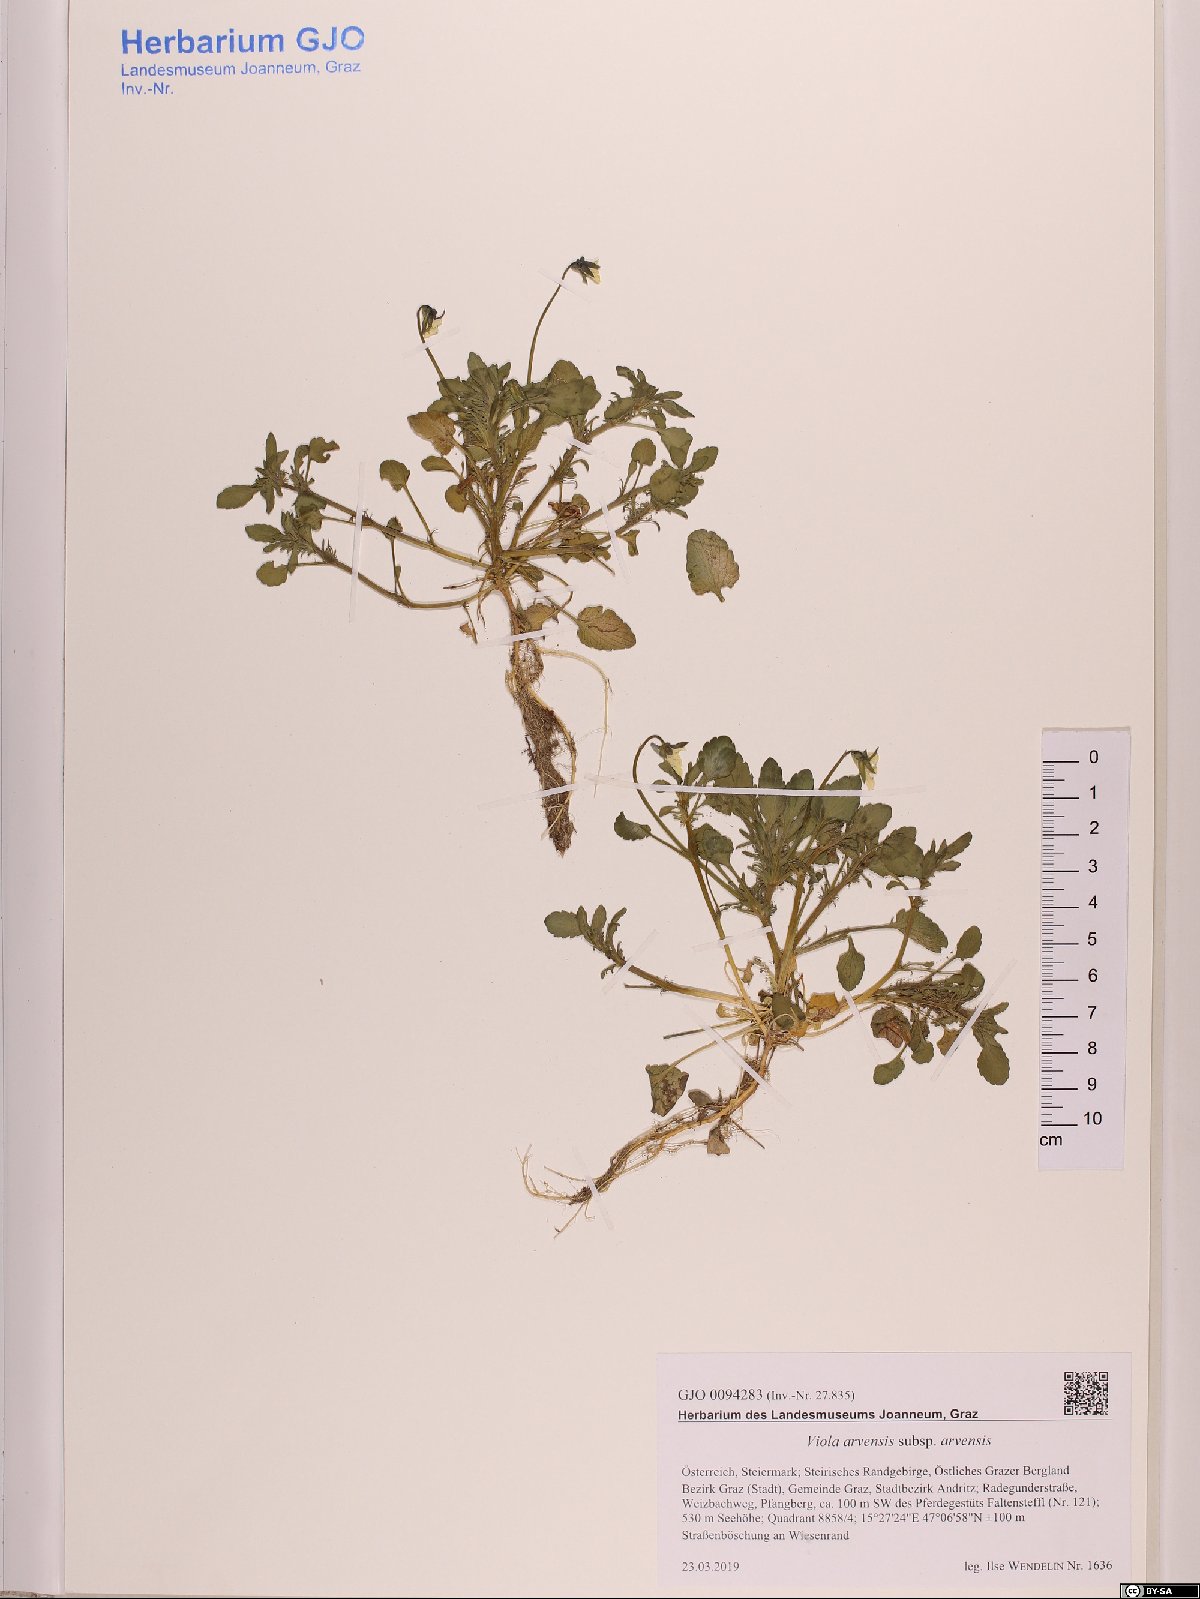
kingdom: Plantae
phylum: Tracheophyta
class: Magnoliopsida
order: Malpighiales
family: Violaceae
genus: Viola
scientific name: Viola arvensis
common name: Field pansy
